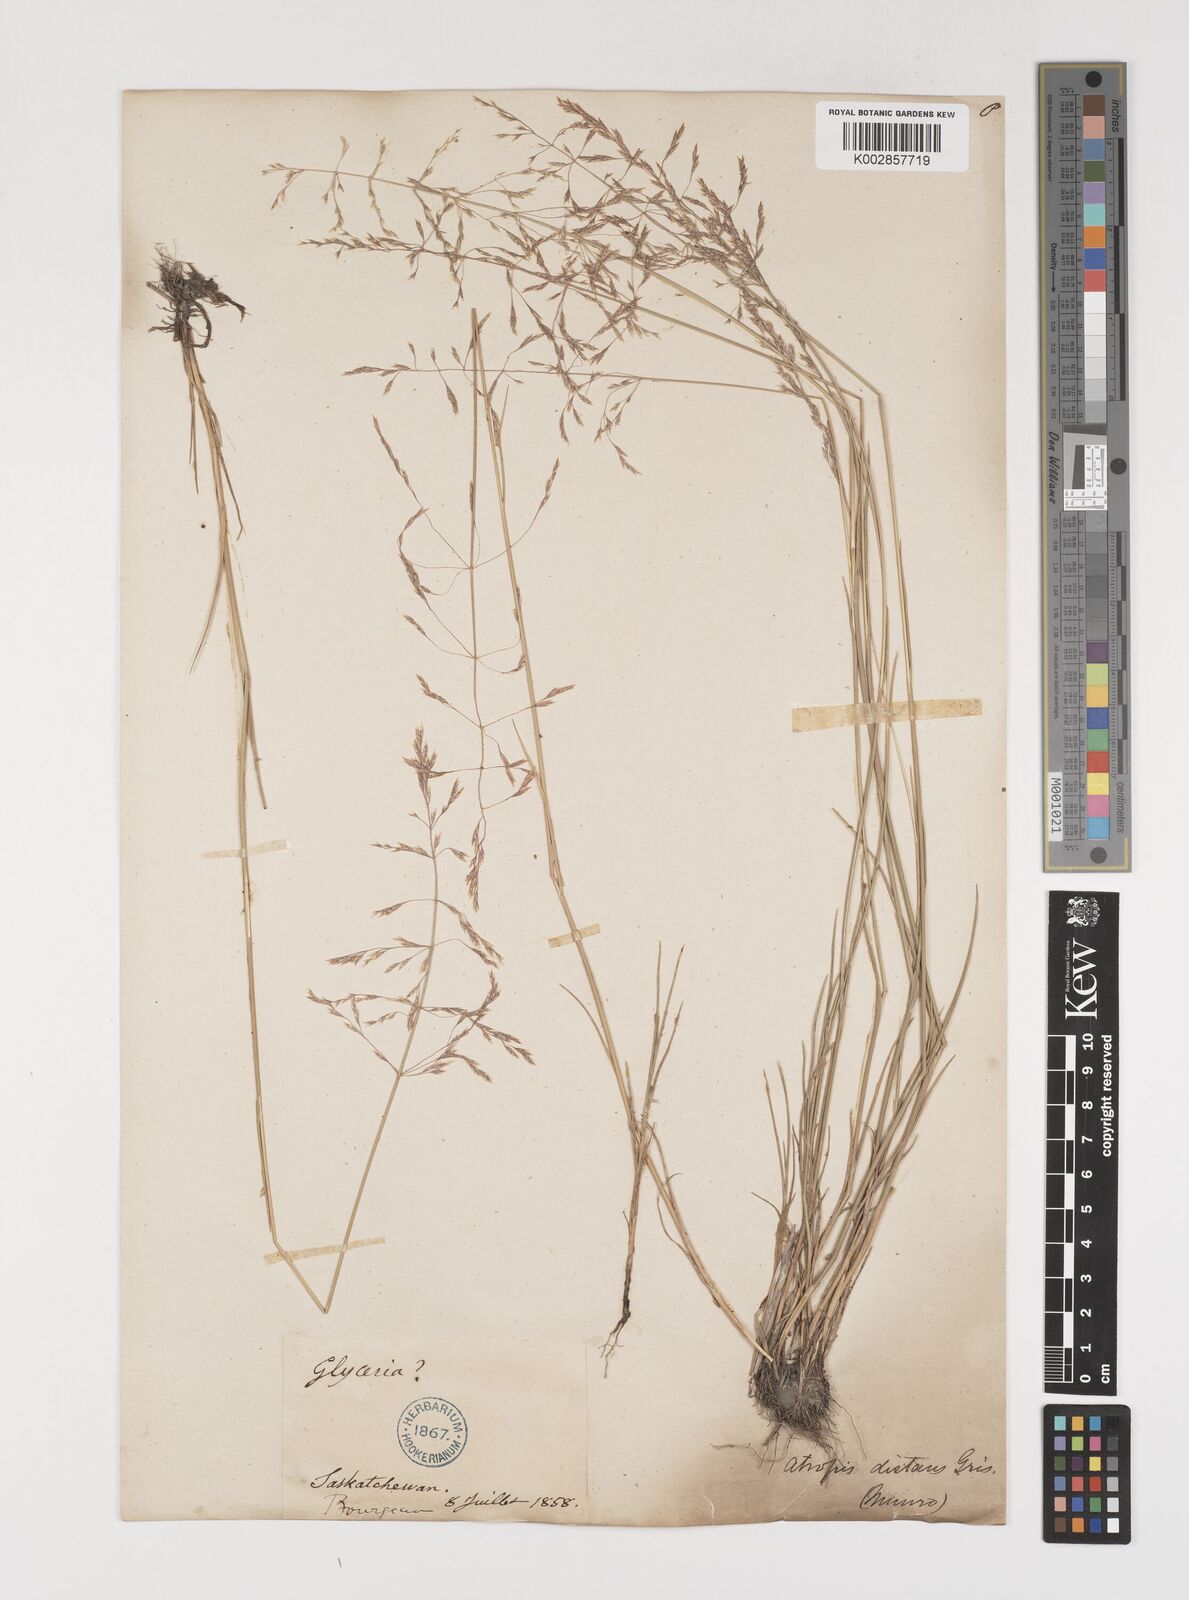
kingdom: Plantae
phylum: Tracheophyta
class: Liliopsida
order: Poales
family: Poaceae
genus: Puccinellia
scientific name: Puccinellia nuttalliana
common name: Nuttall's alkali grass
